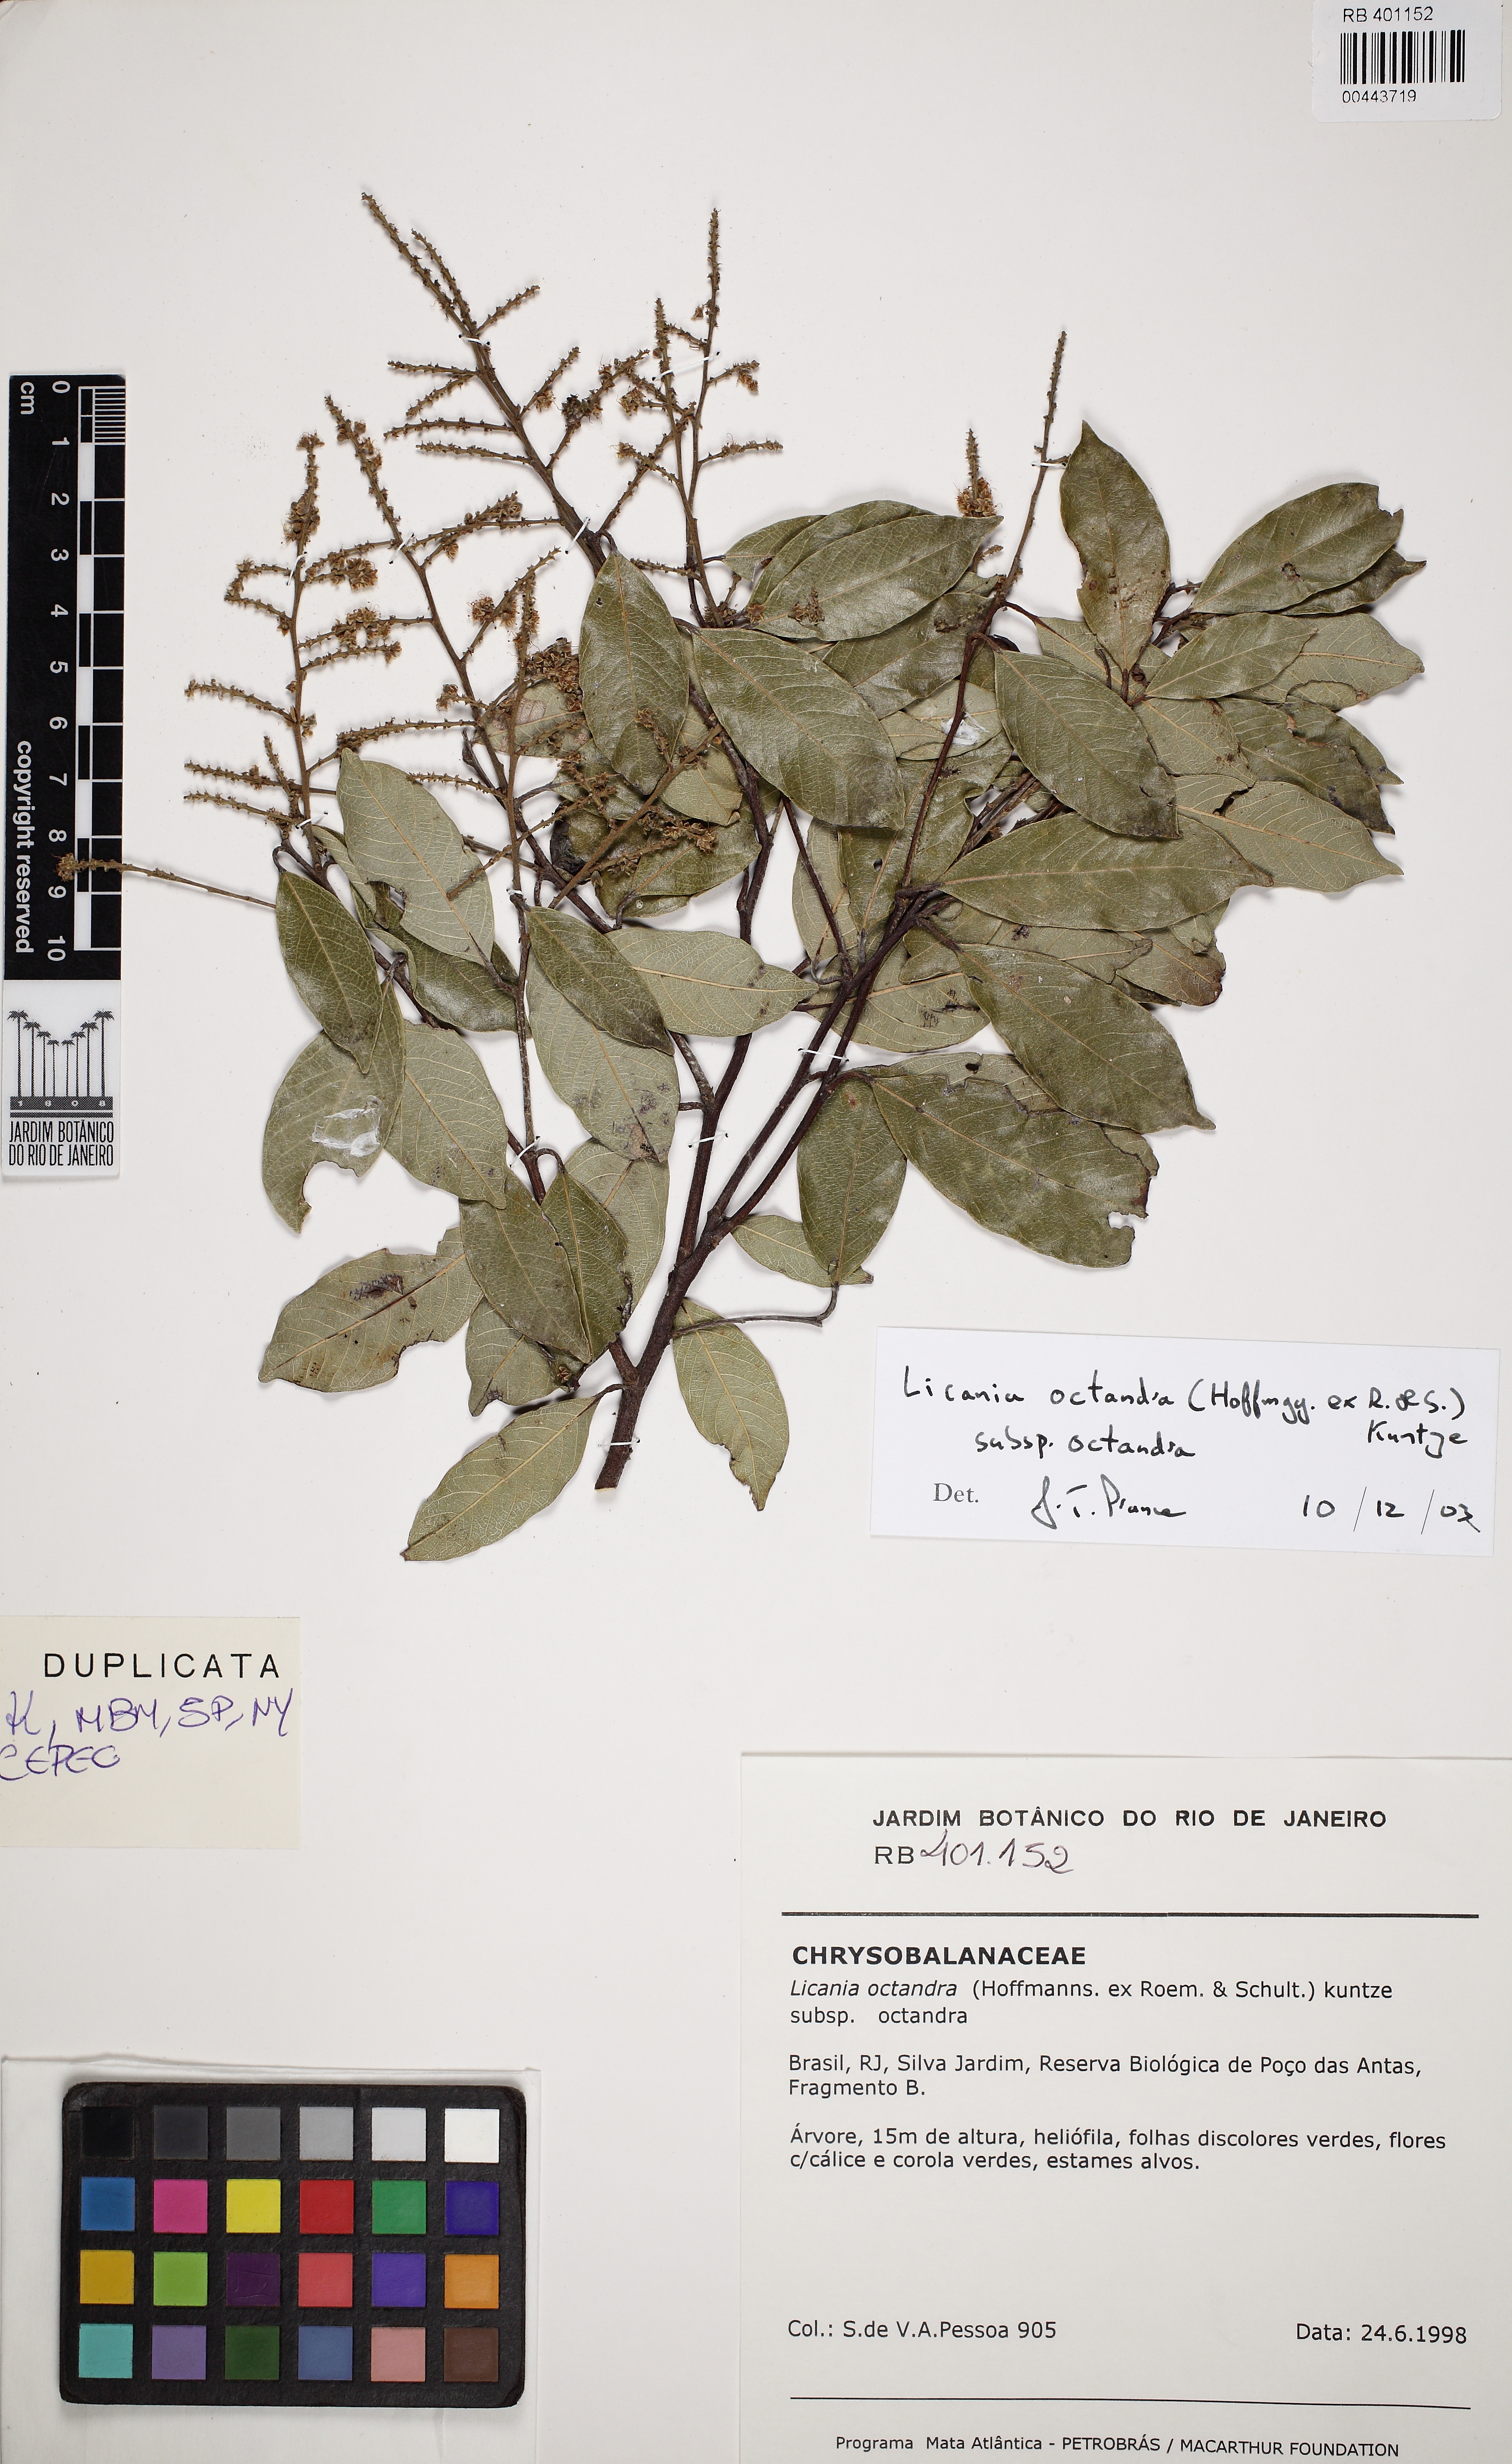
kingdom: Plantae
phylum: Tracheophyta
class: Magnoliopsida
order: Malpighiales
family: Chrysobalanaceae
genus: Leptobalanus
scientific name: Leptobalanus octandrus
